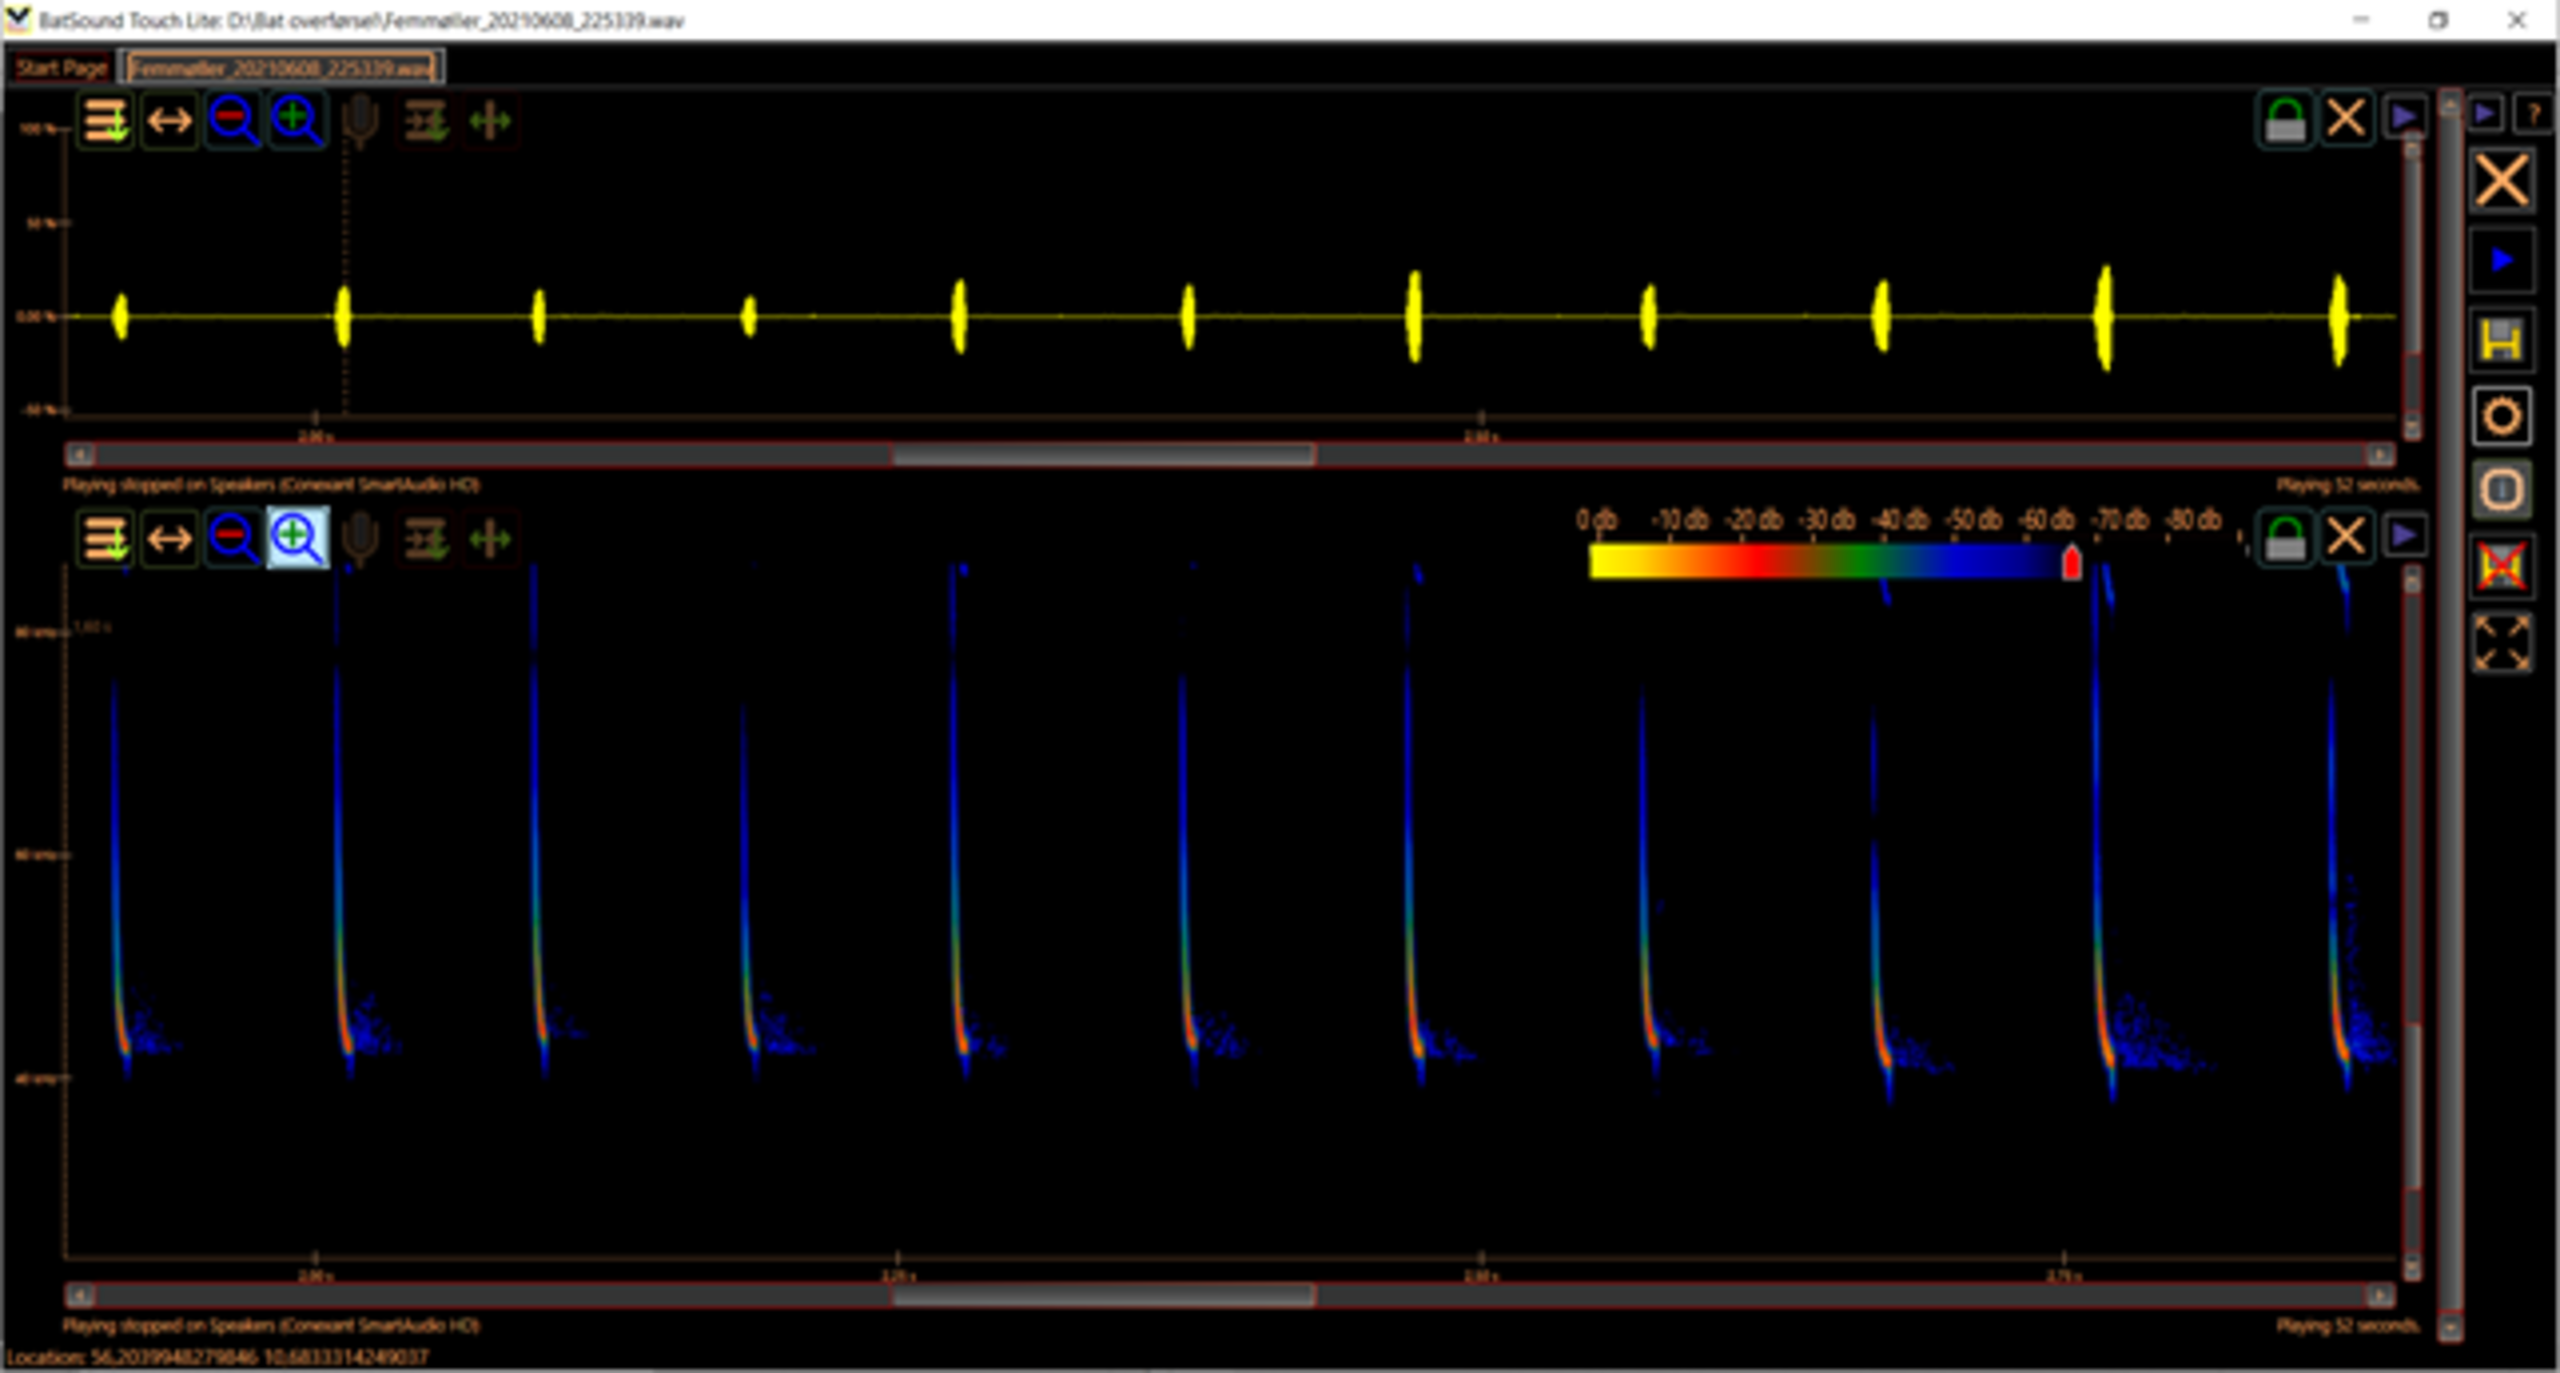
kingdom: Animalia
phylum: Chordata
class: Mammalia
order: Chiroptera
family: Vespertilionidae
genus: Pipistrellus
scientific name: Pipistrellus nathusii
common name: Troldflagermus
